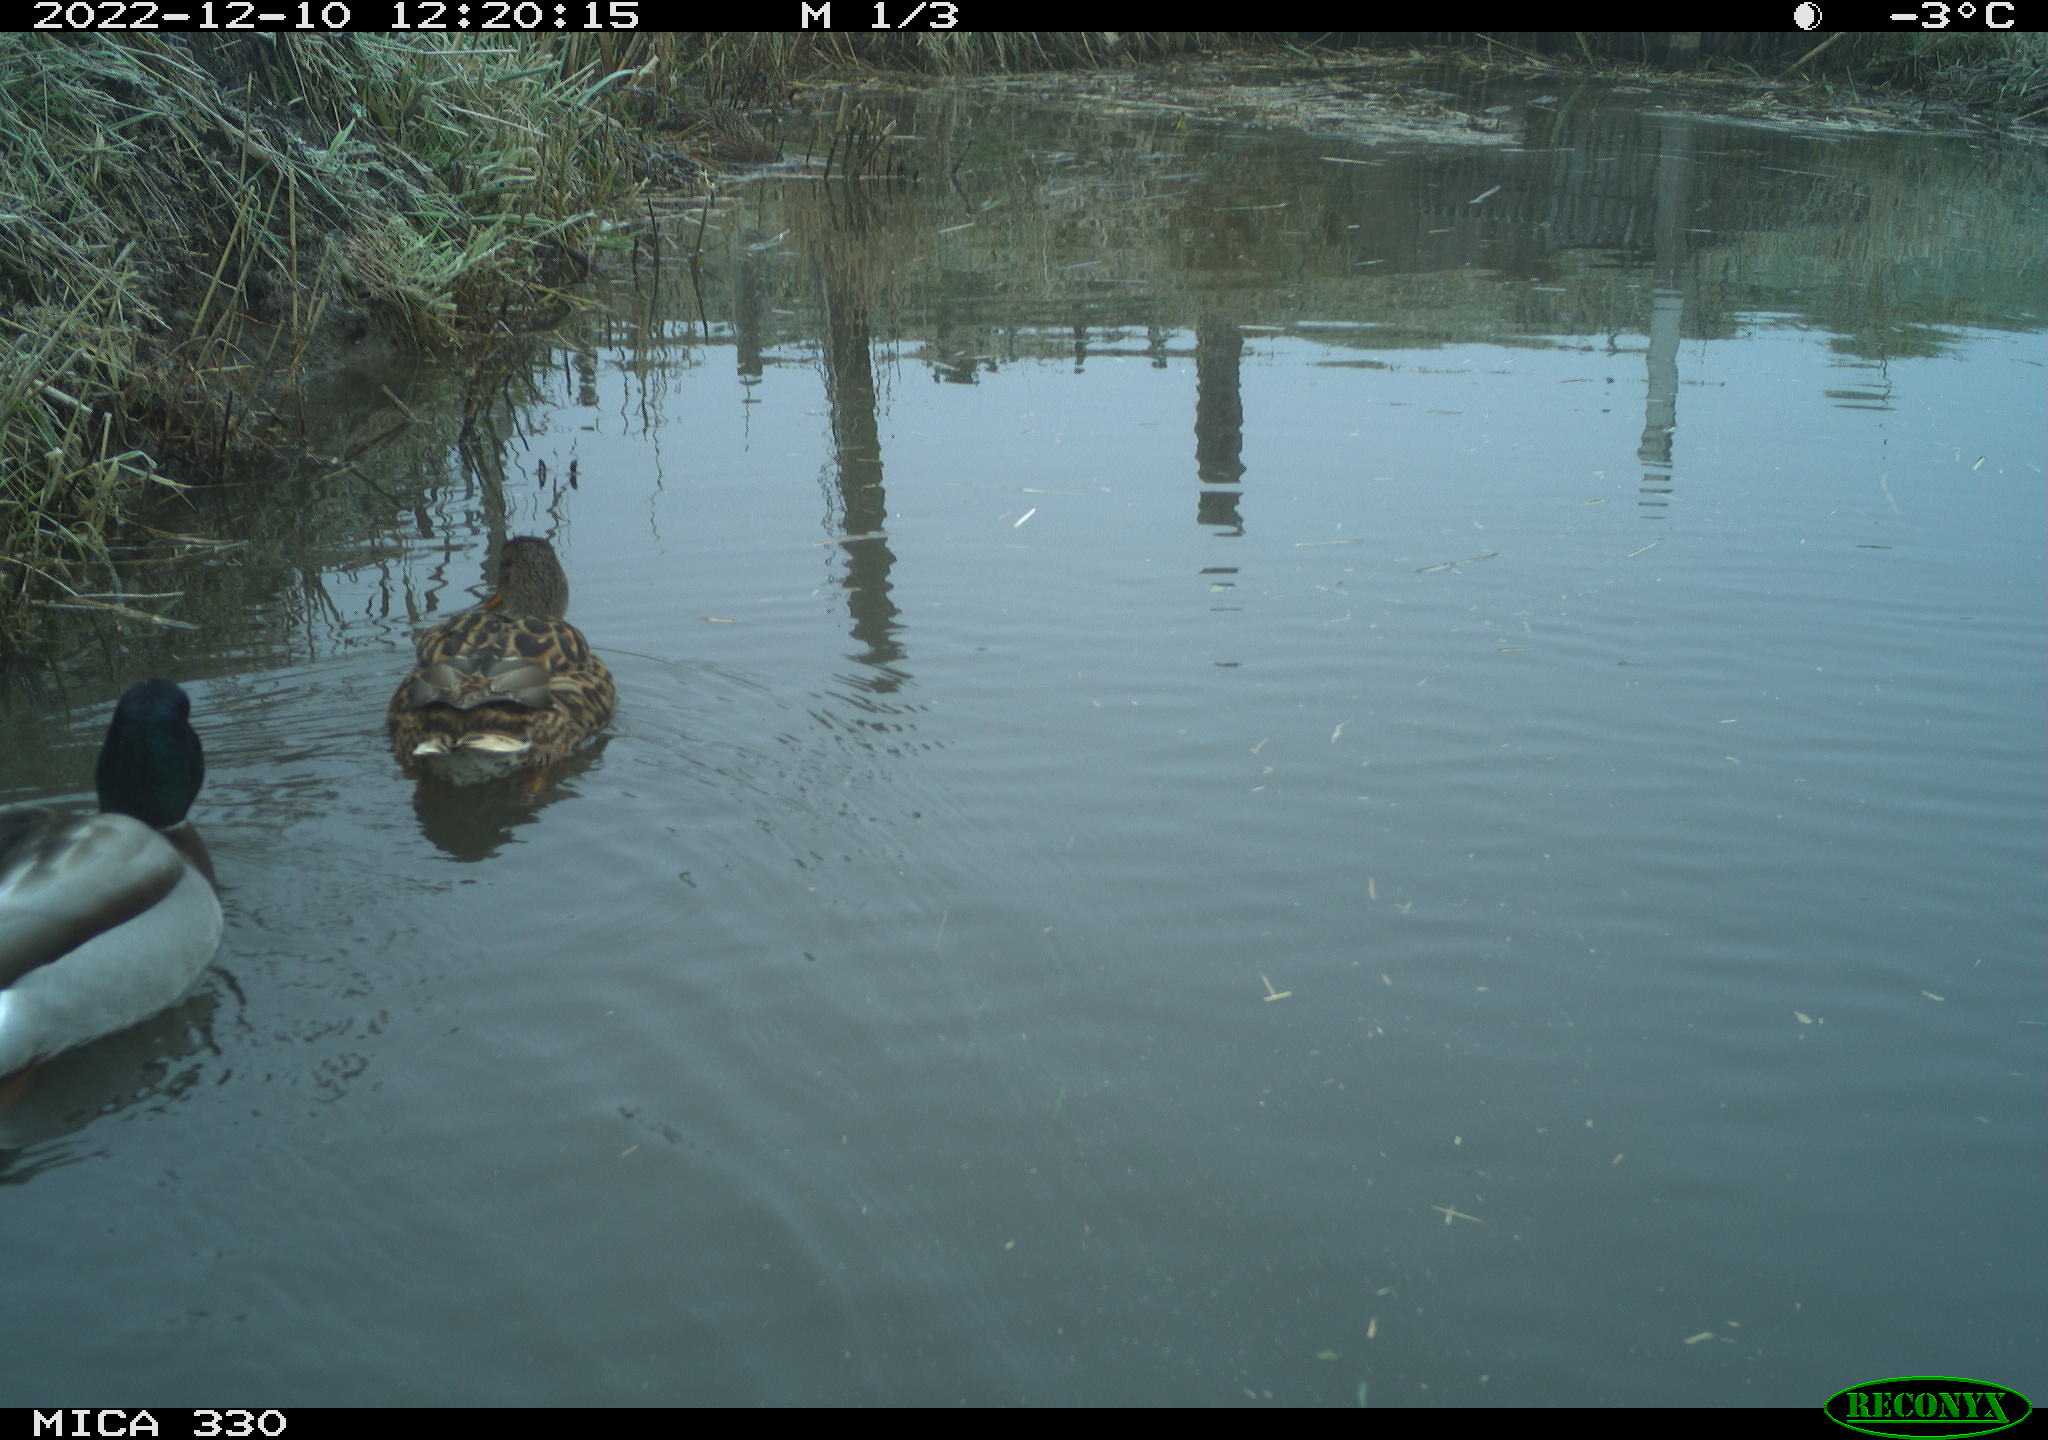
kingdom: Animalia
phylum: Chordata
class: Aves
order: Anseriformes
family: Anatidae
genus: Anas
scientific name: Anas
